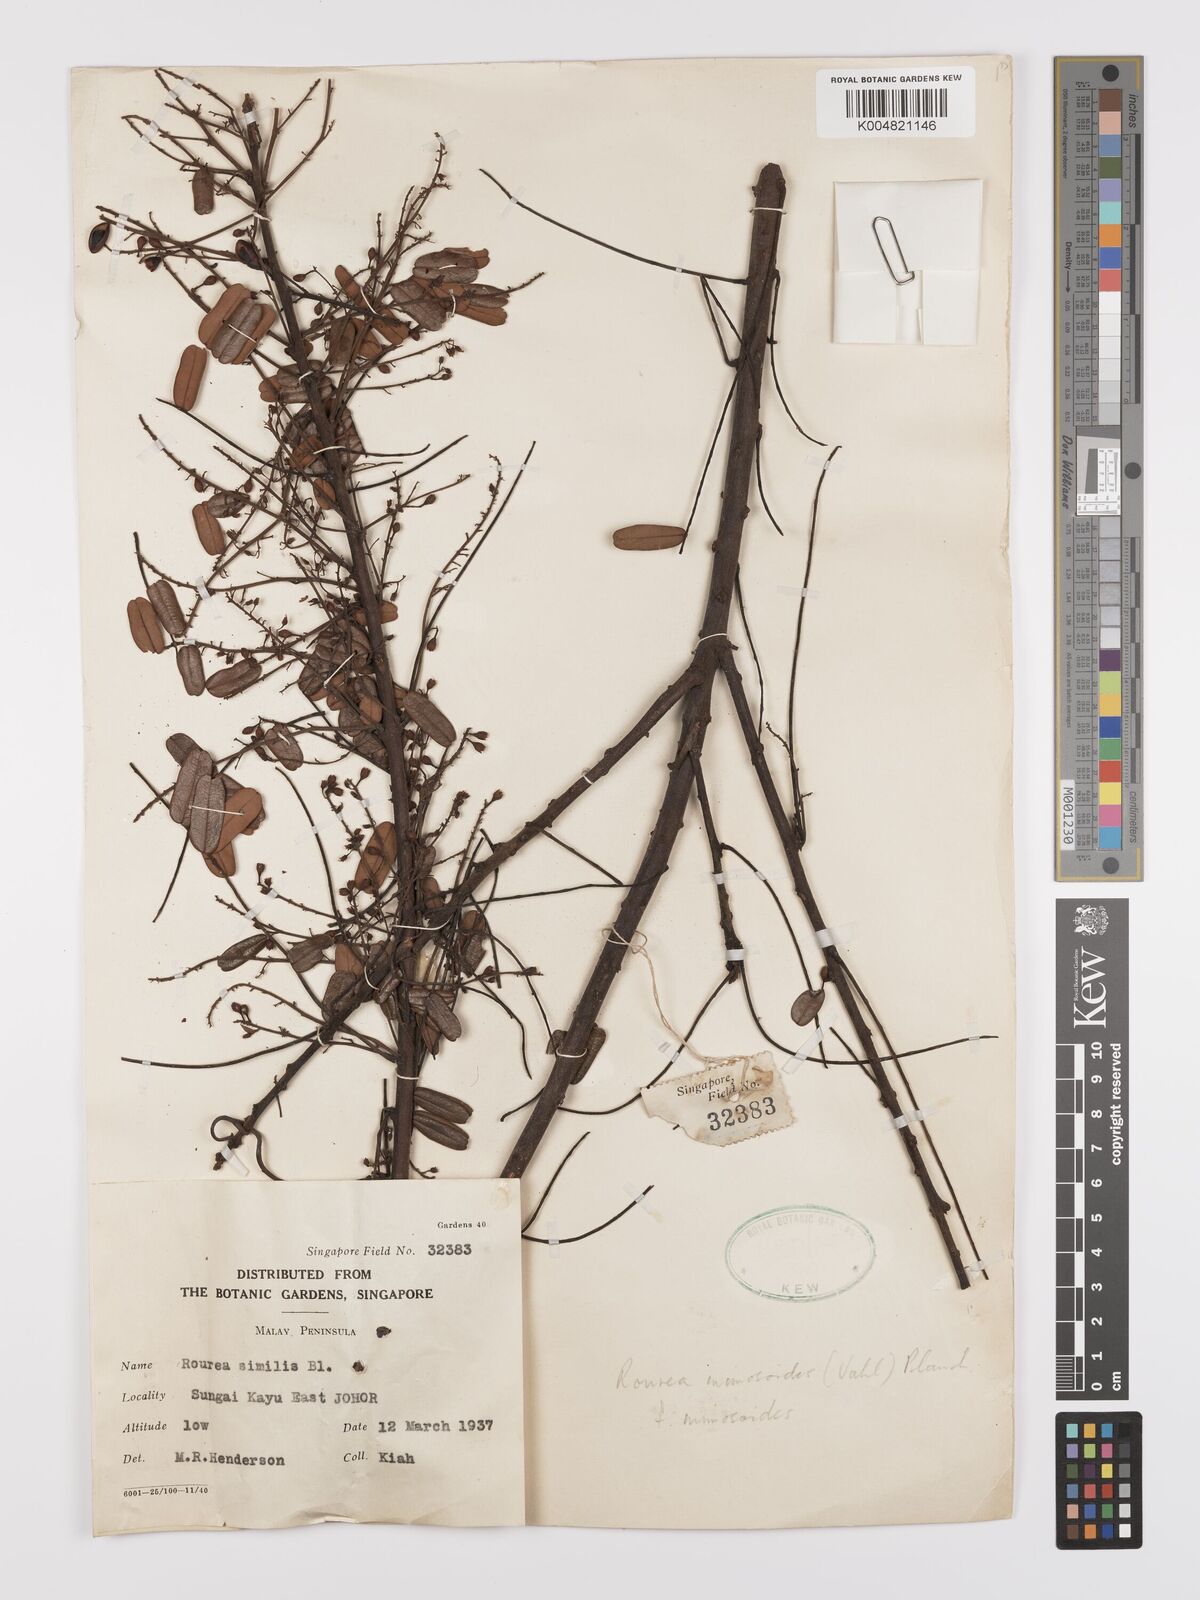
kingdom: Plantae
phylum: Tracheophyta
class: Magnoliopsida
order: Oxalidales
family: Connaraceae
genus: Rourea
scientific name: Rourea mimosoides
